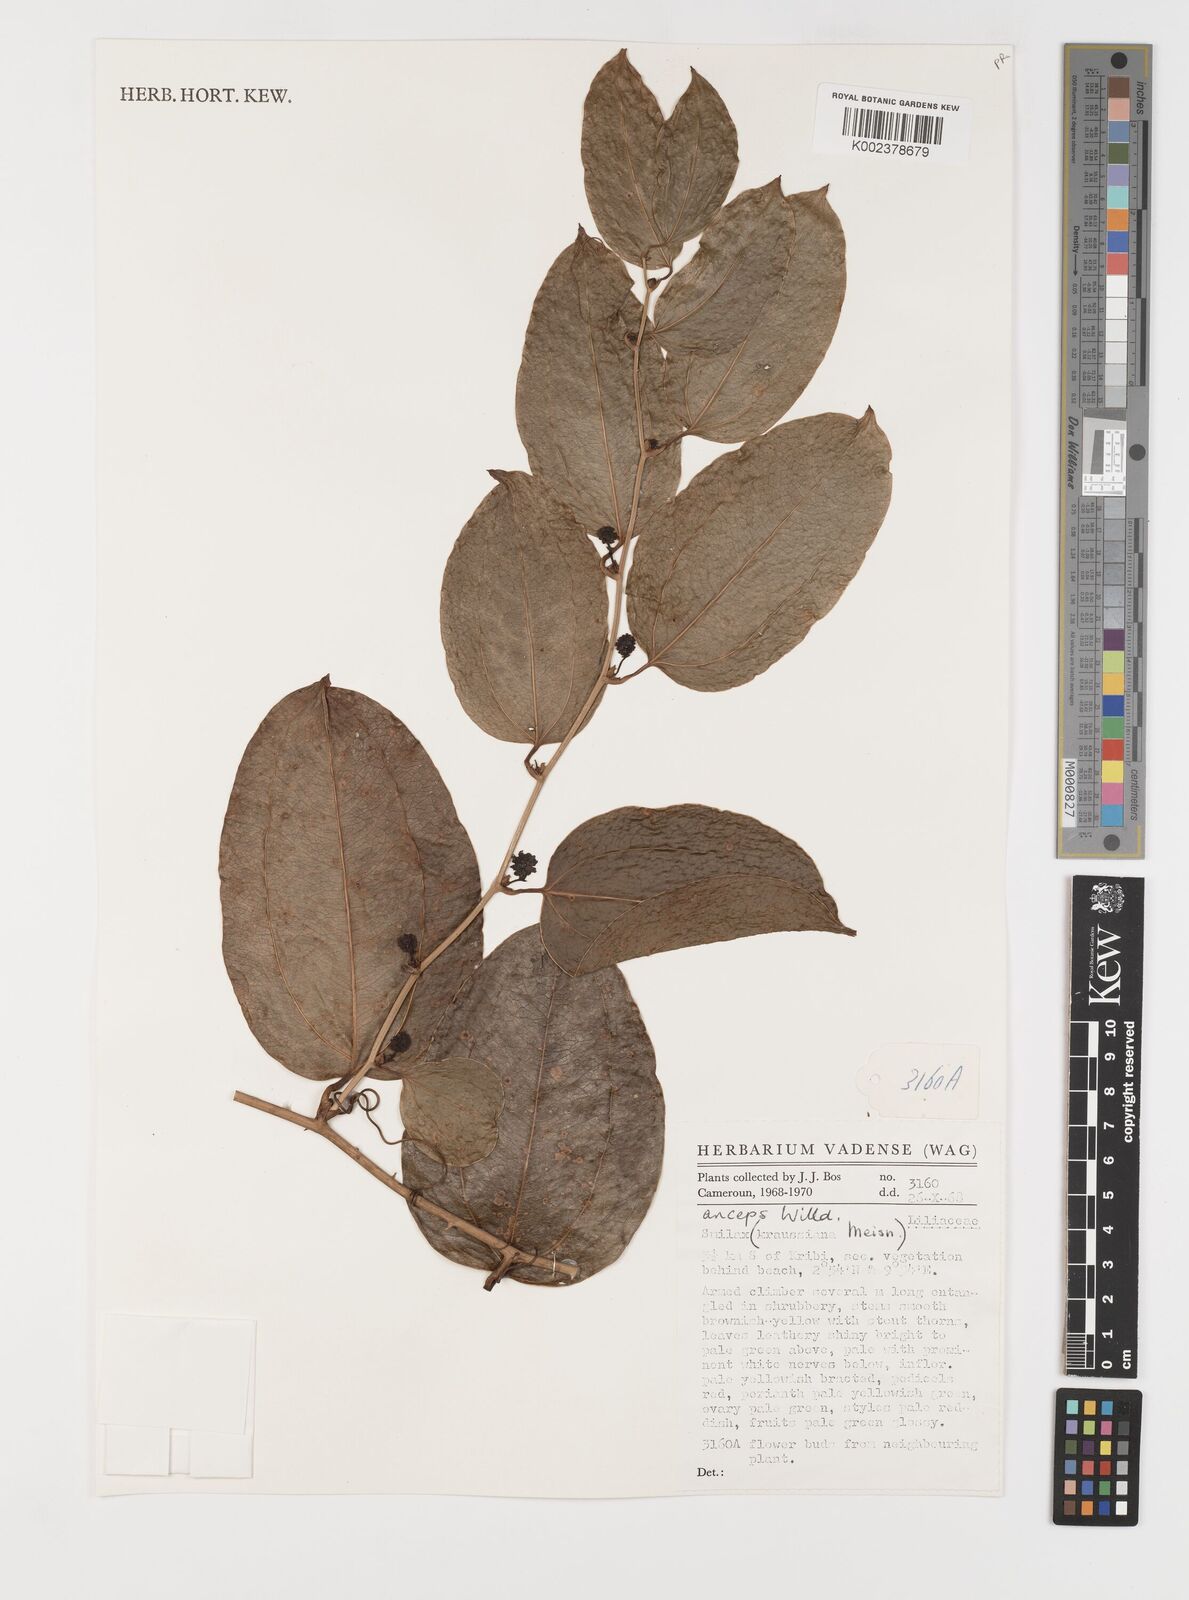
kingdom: Plantae
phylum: Tracheophyta
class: Liliopsida
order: Liliales
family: Smilacaceae
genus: Smilax
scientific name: Smilax anceps
